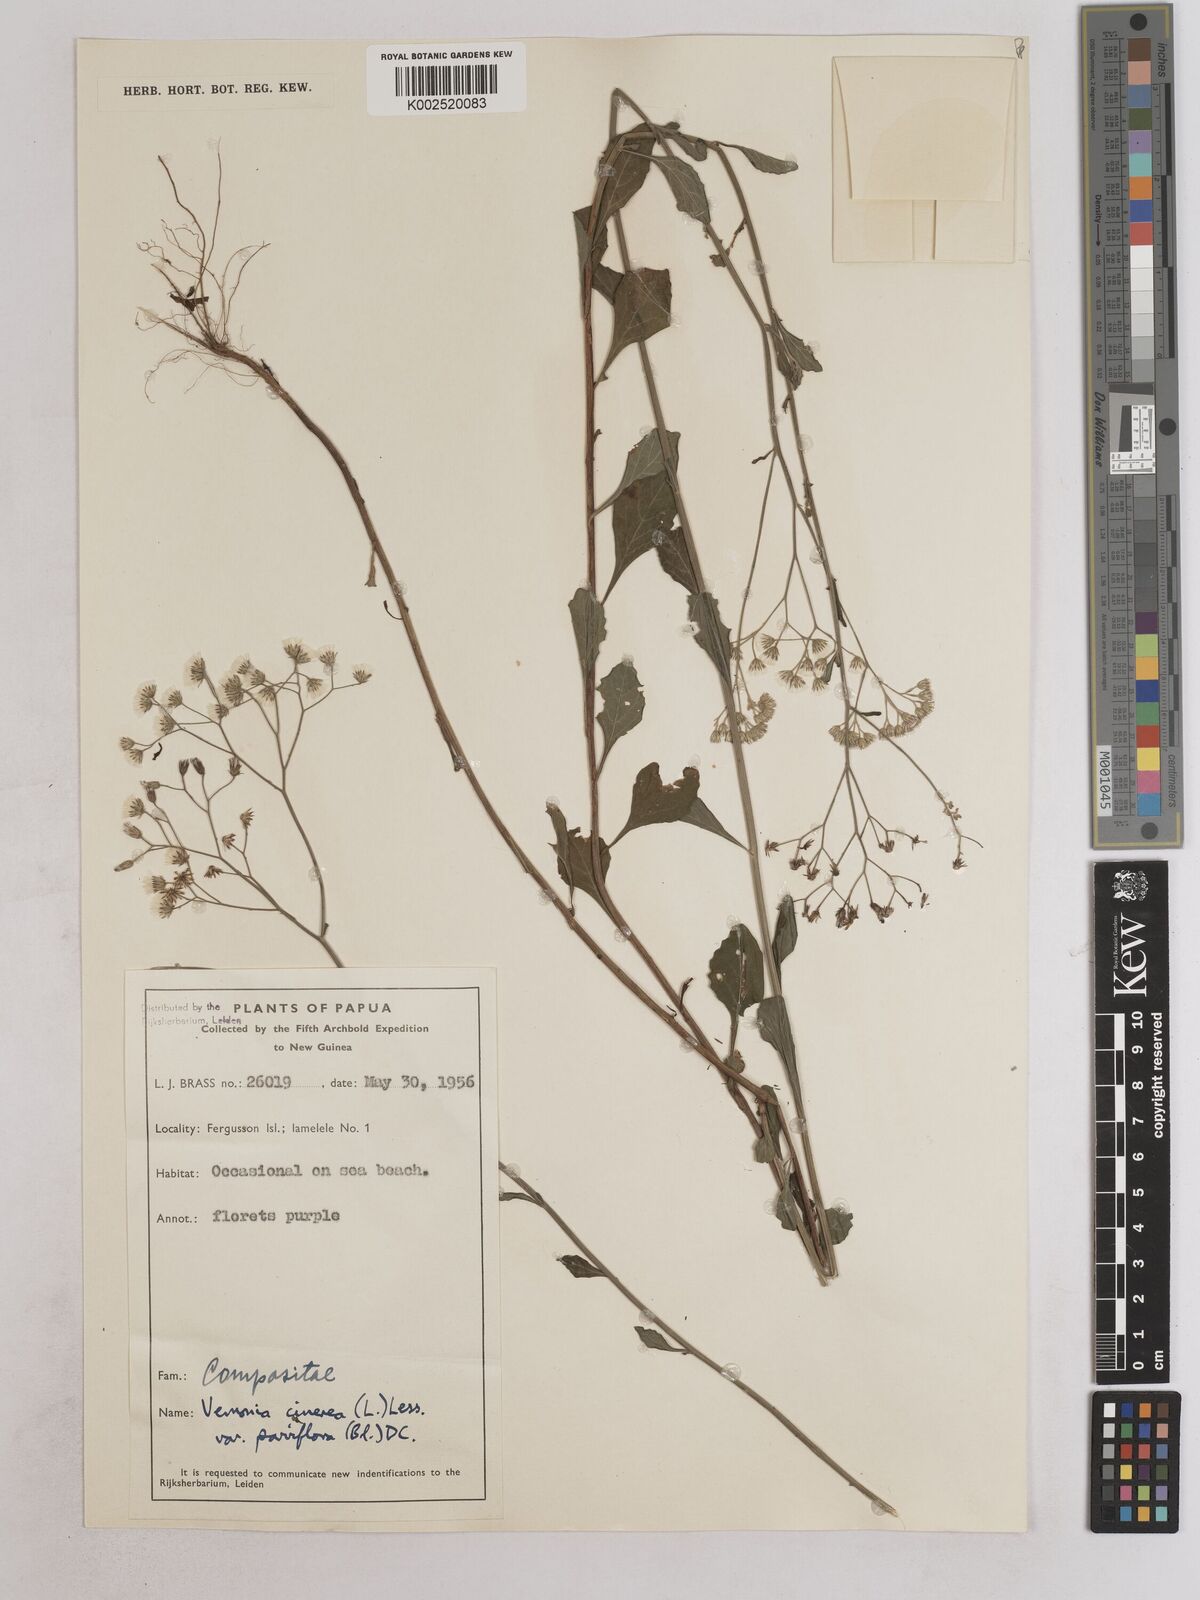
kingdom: Plantae
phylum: Tracheophyta
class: Magnoliopsida
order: Asterales
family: Asteraceae
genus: Cyanthillium
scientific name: Cyanthillium cinereum
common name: Little ironweed
